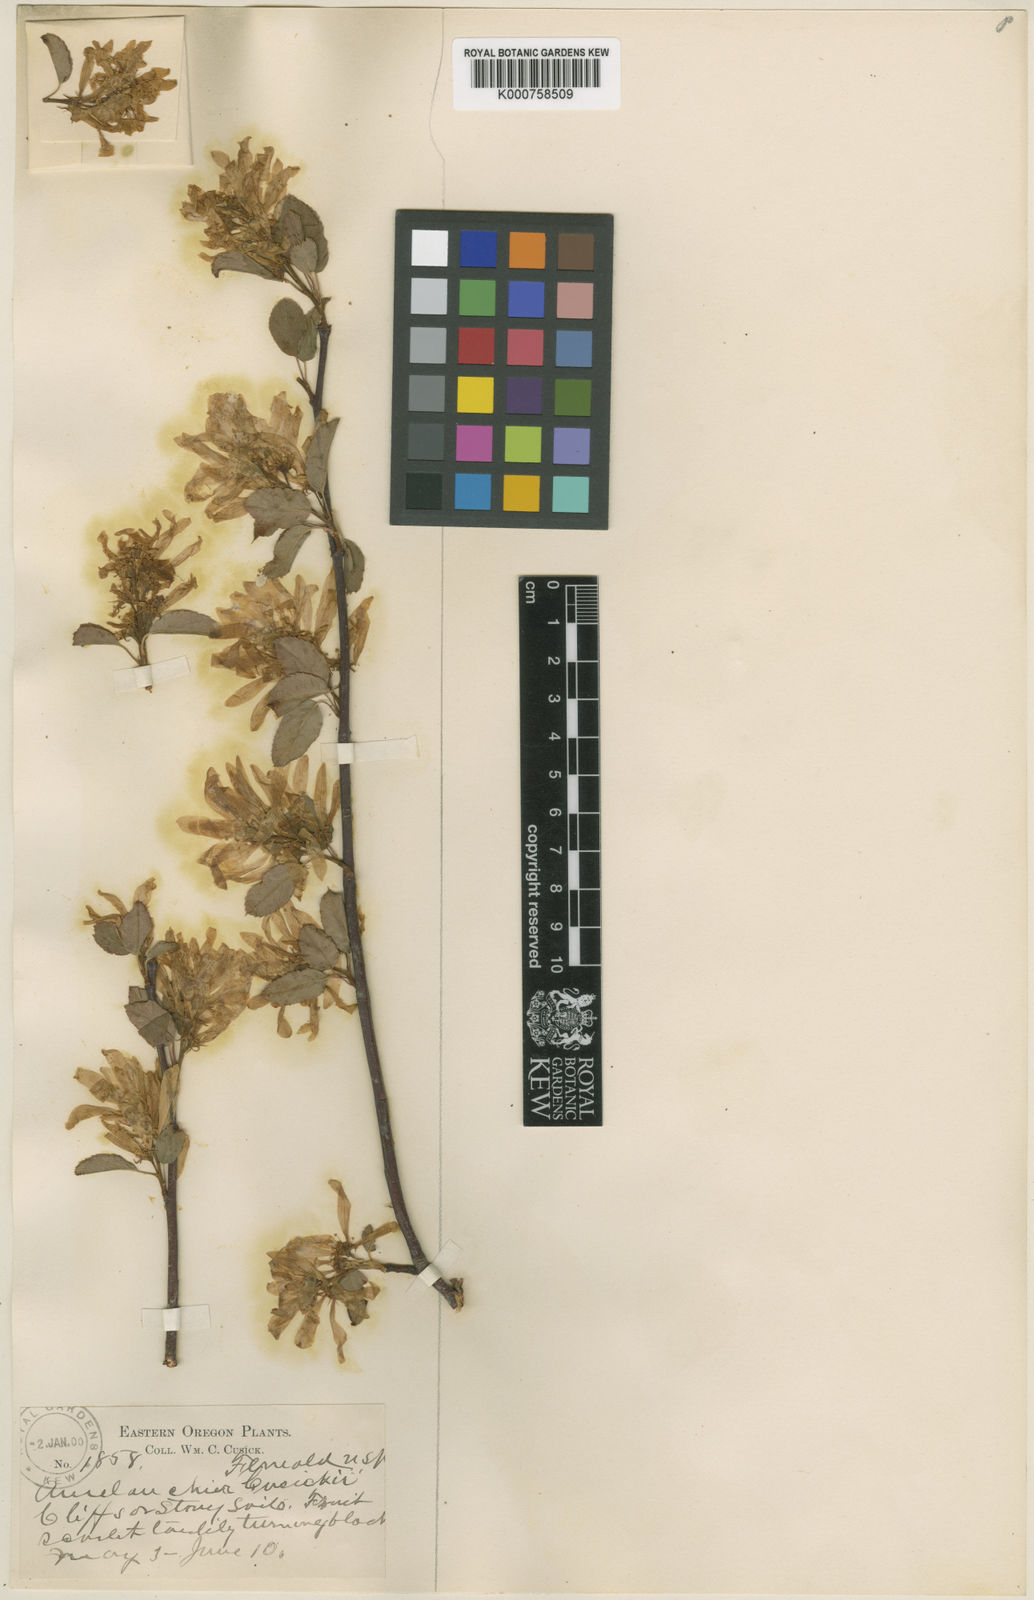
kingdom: Plantae
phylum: Tracheophyta
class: Magnoliopsida
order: Rosales
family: Rosaceae
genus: Amelanchier
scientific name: Amelanchier alnifolia
